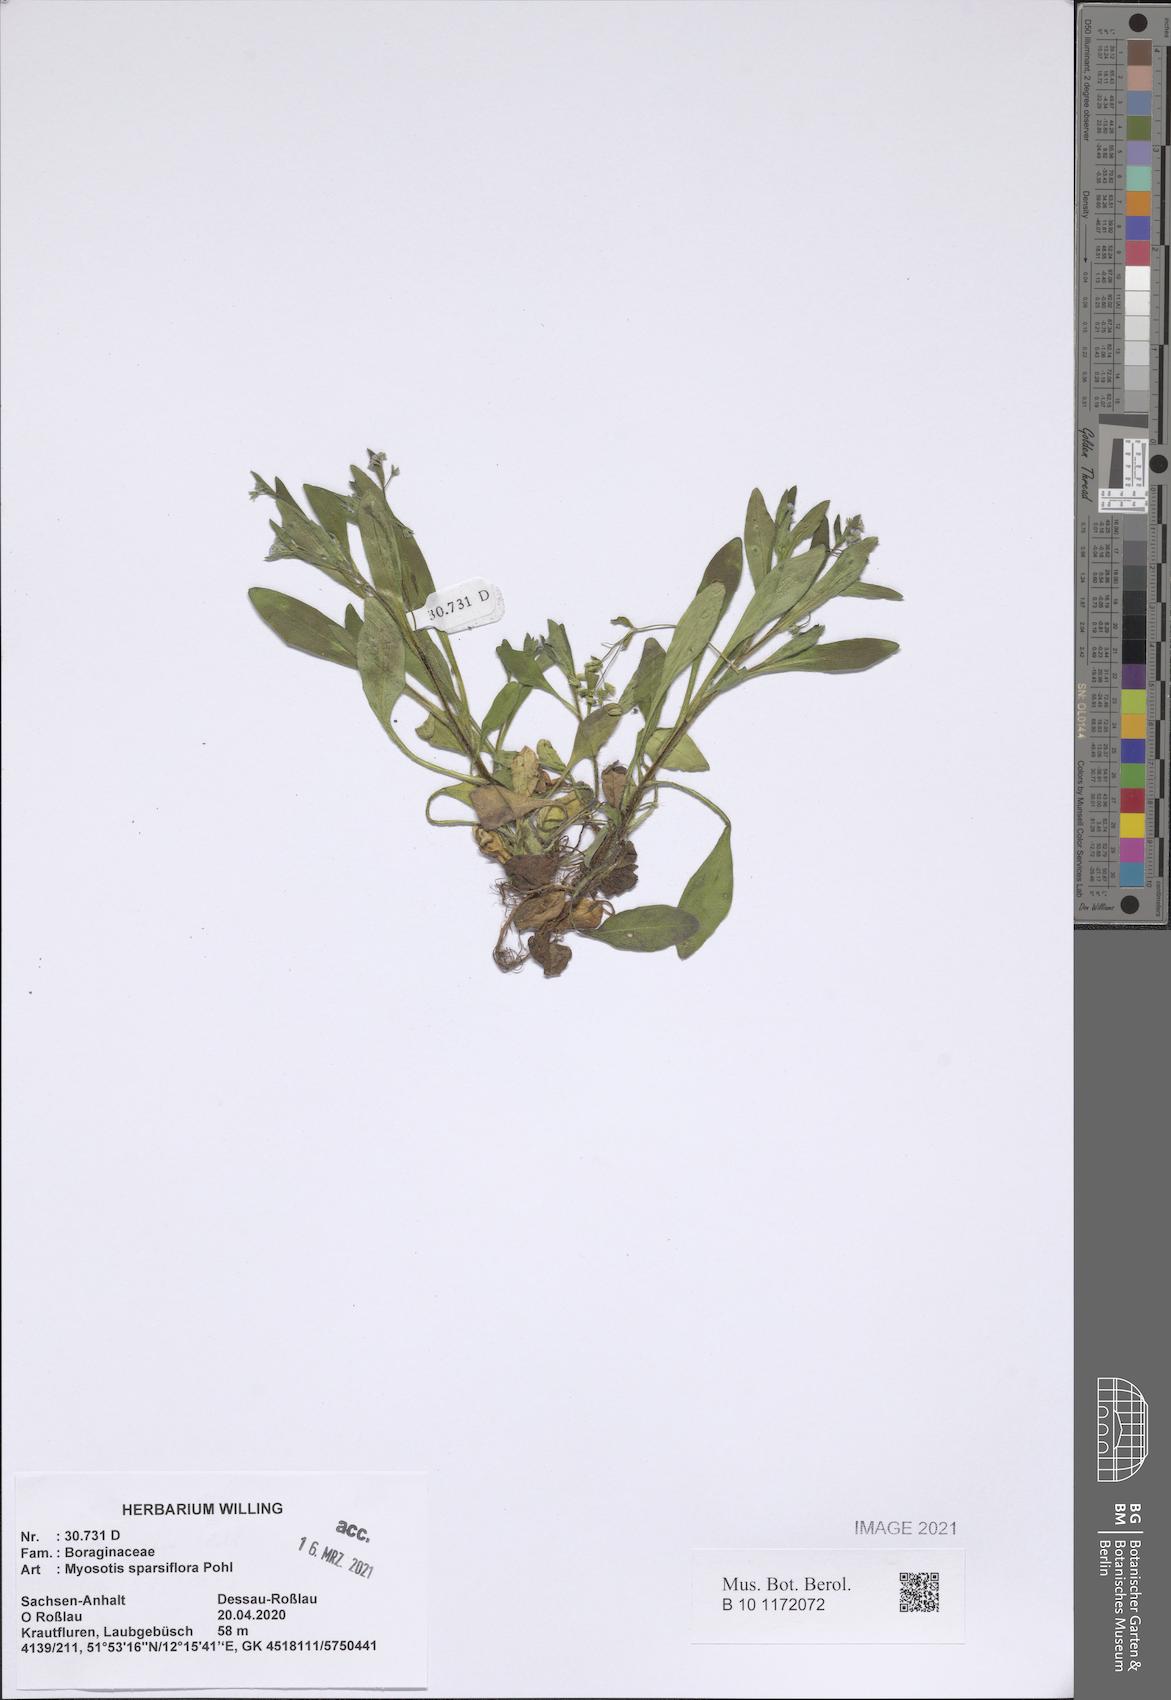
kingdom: Plantae
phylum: Tracheophyta
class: Magnoliopsida
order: Boraginales
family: Boraginaceae
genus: Myosotis
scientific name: Myosotis sparsiflora
